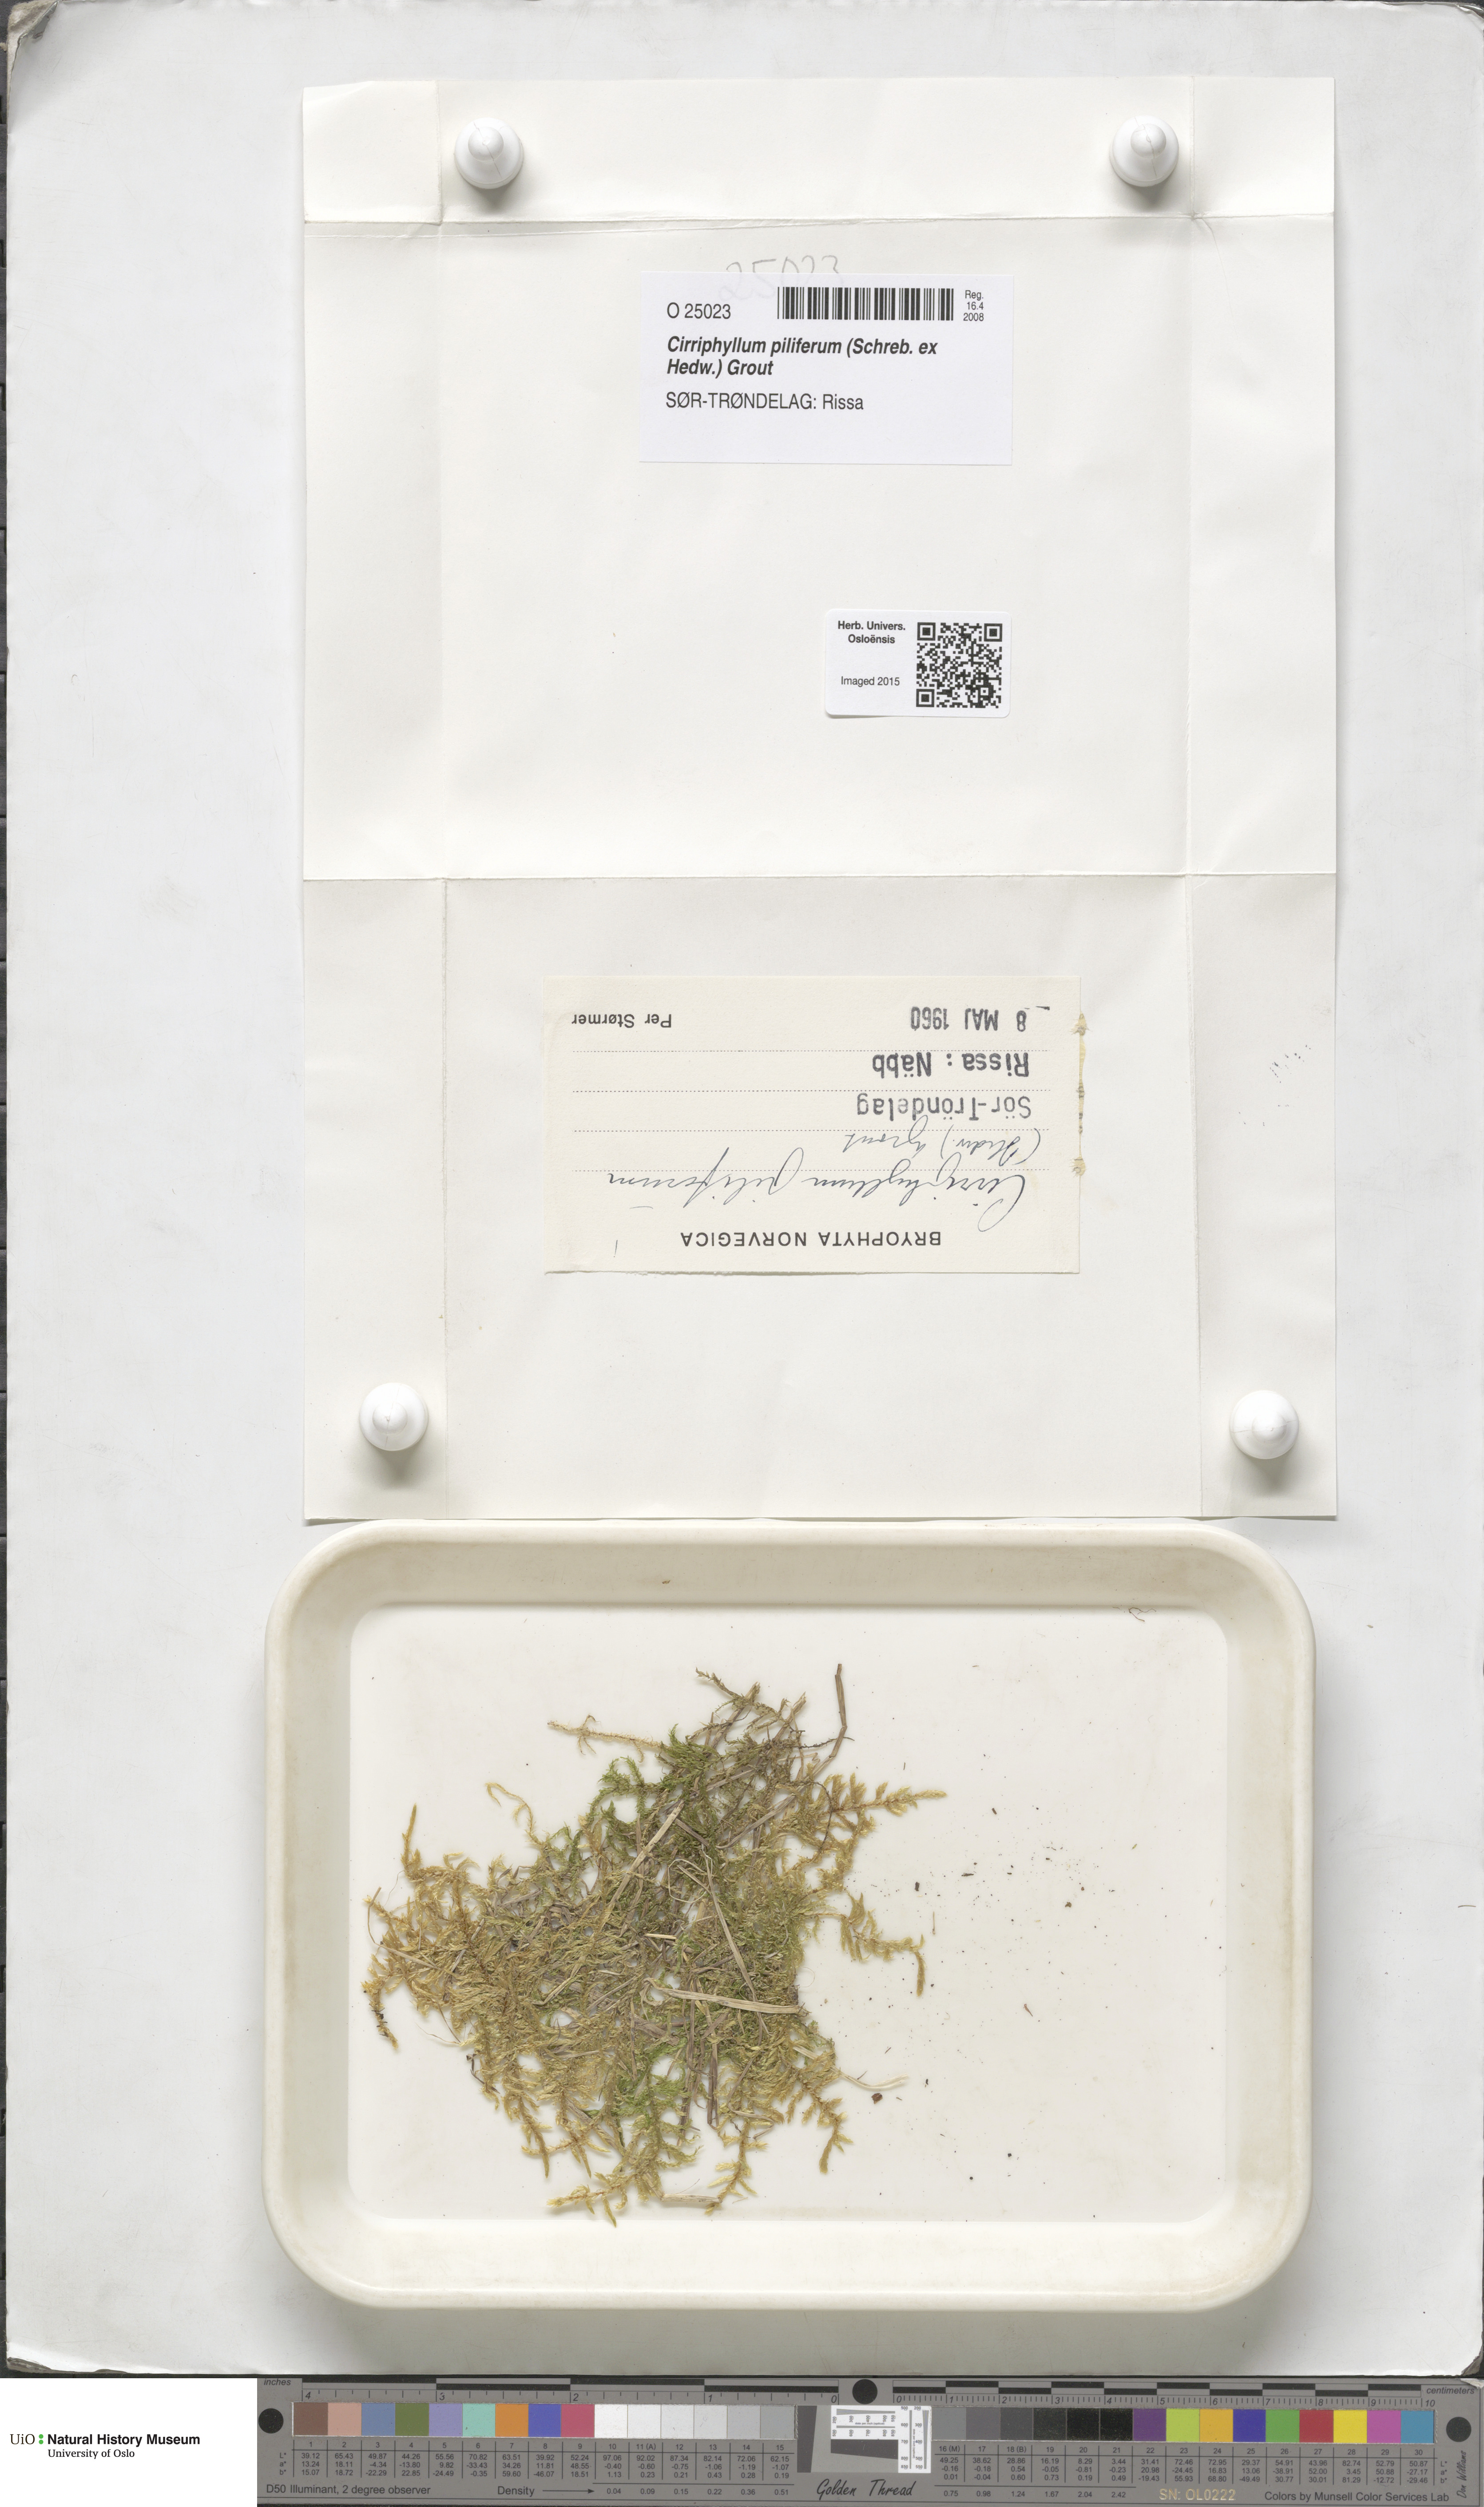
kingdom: Plantae
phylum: Bryophyta
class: Bryopsida
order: Hypnales
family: Brachytheciaceae
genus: Cirriphyllum
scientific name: Cirriphyllum piliferum
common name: Hair-pointed moss
